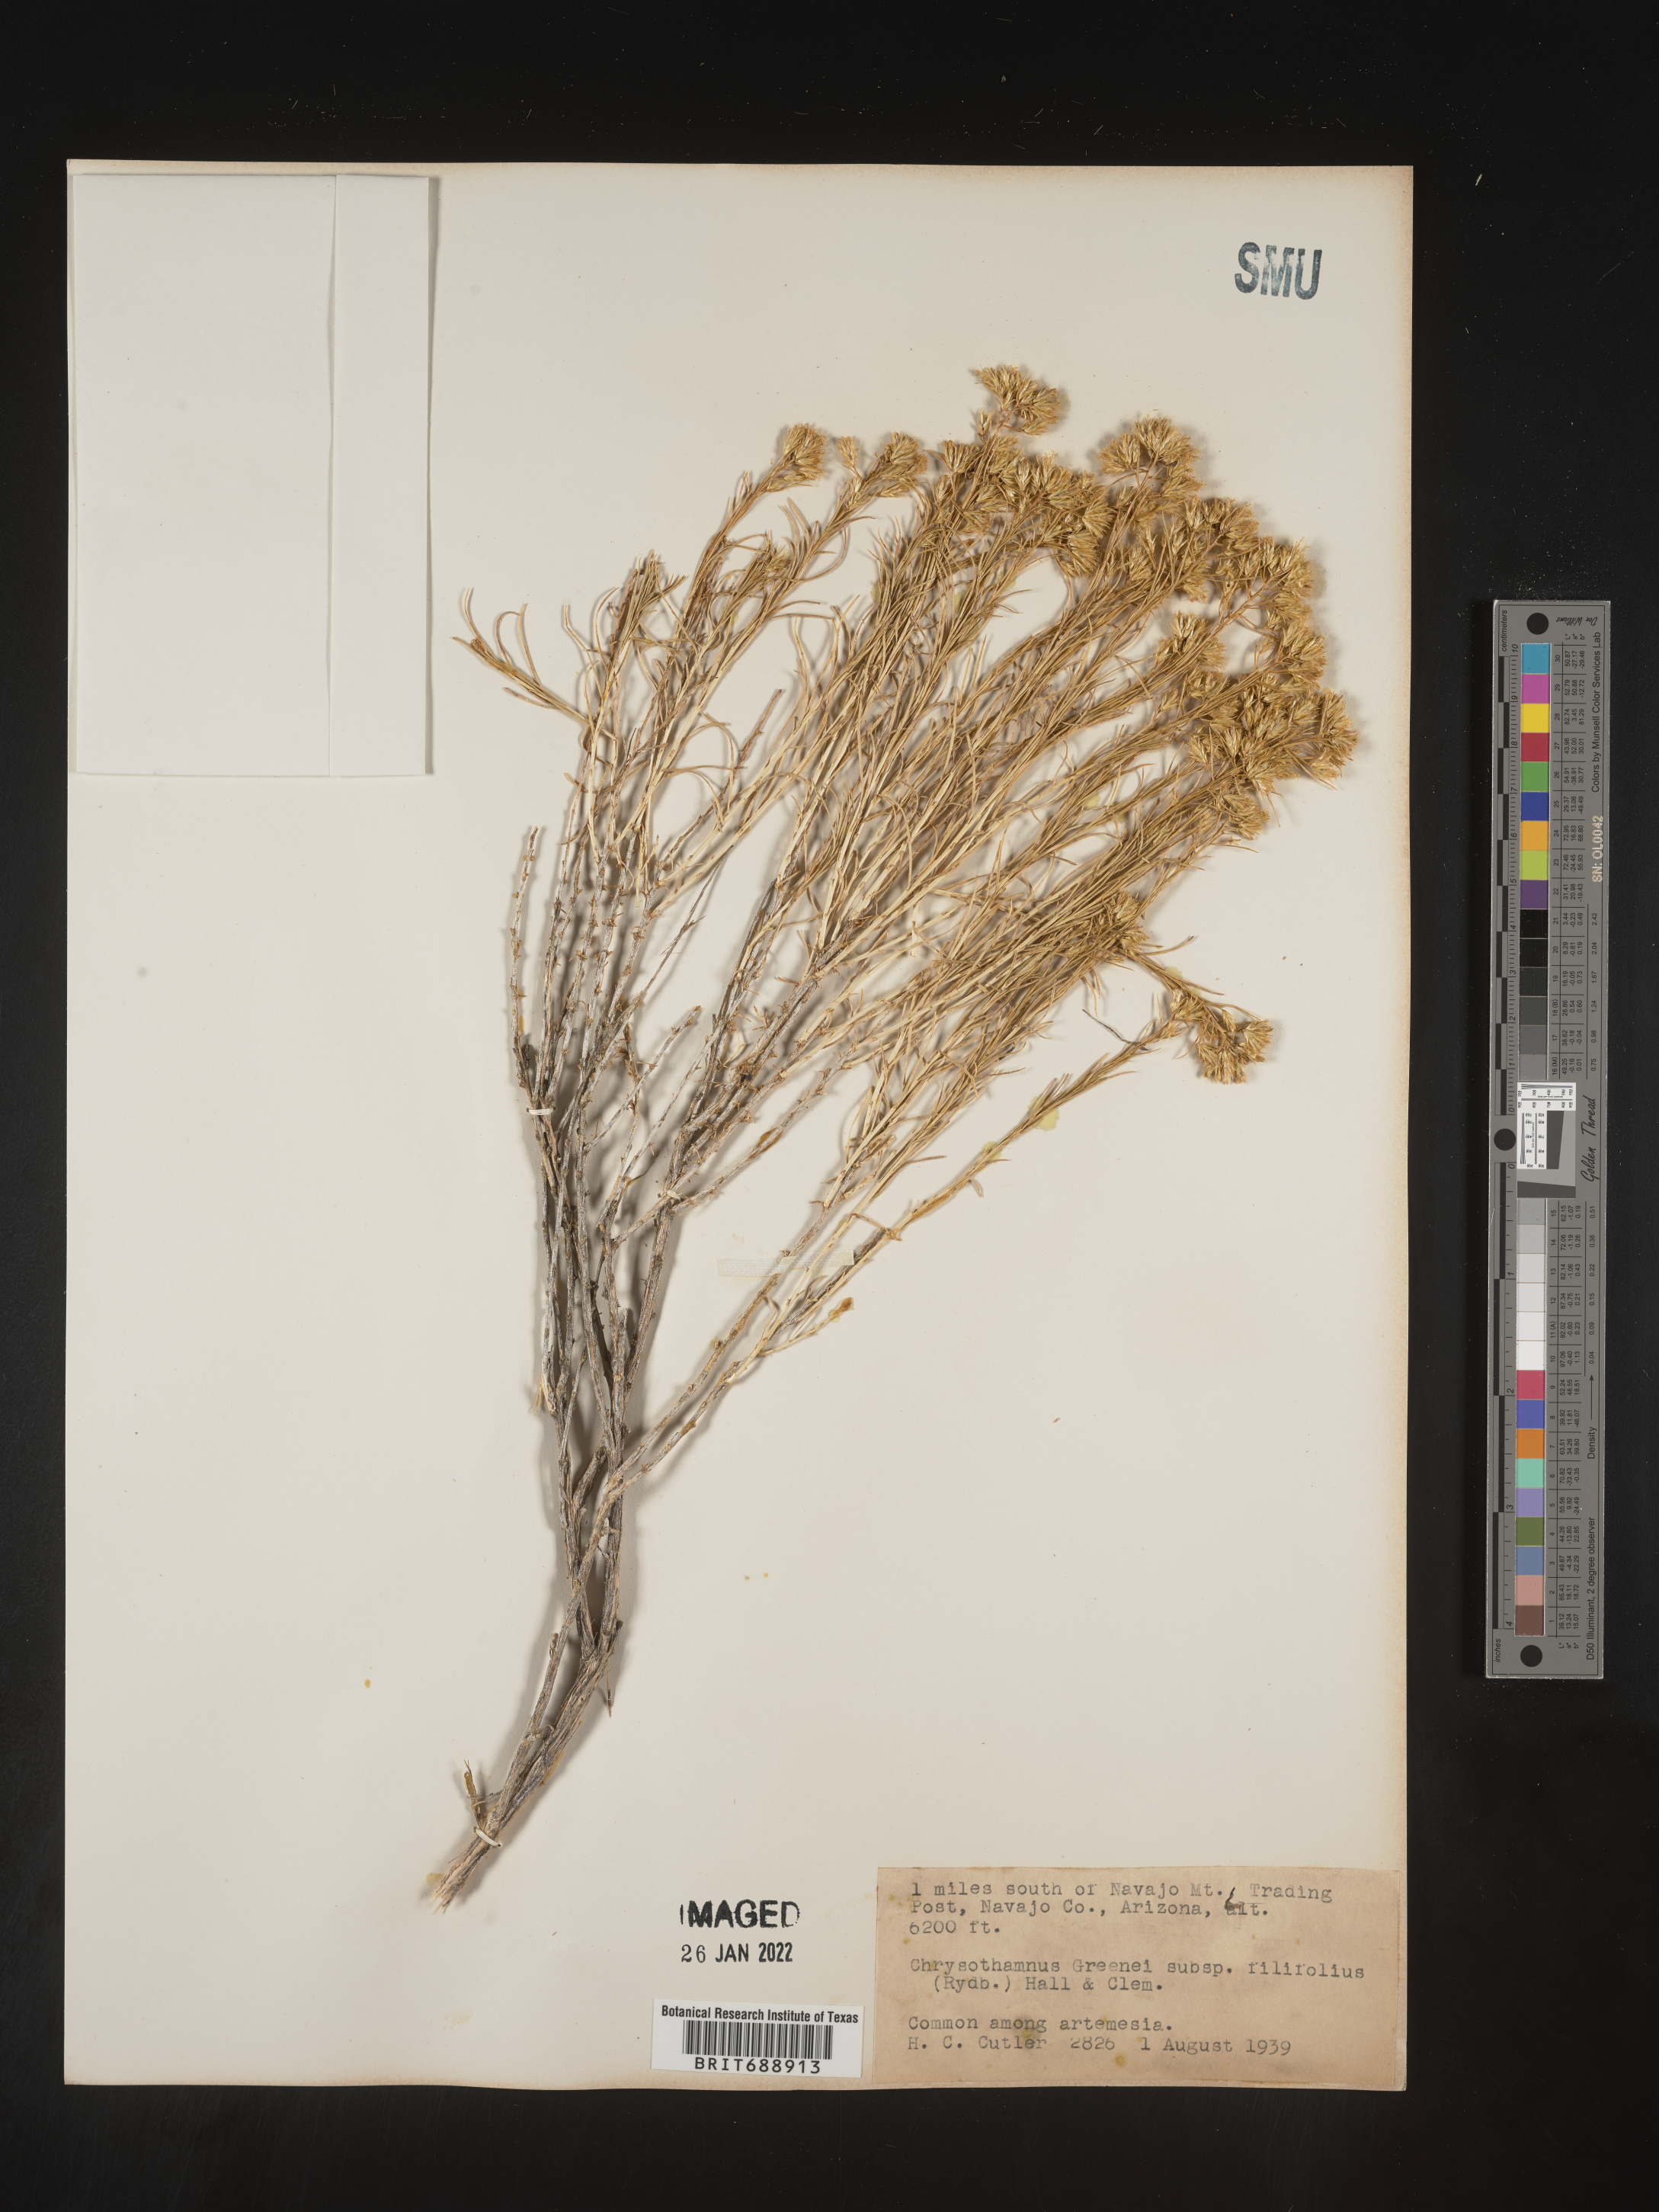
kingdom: Plantae
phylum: Tracheophyta
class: Magnoliopsida
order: Asterales
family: Asteraceae
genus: Chrysothamnus
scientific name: Chrysothamnus greenei
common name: Greene's rabbitbrush
